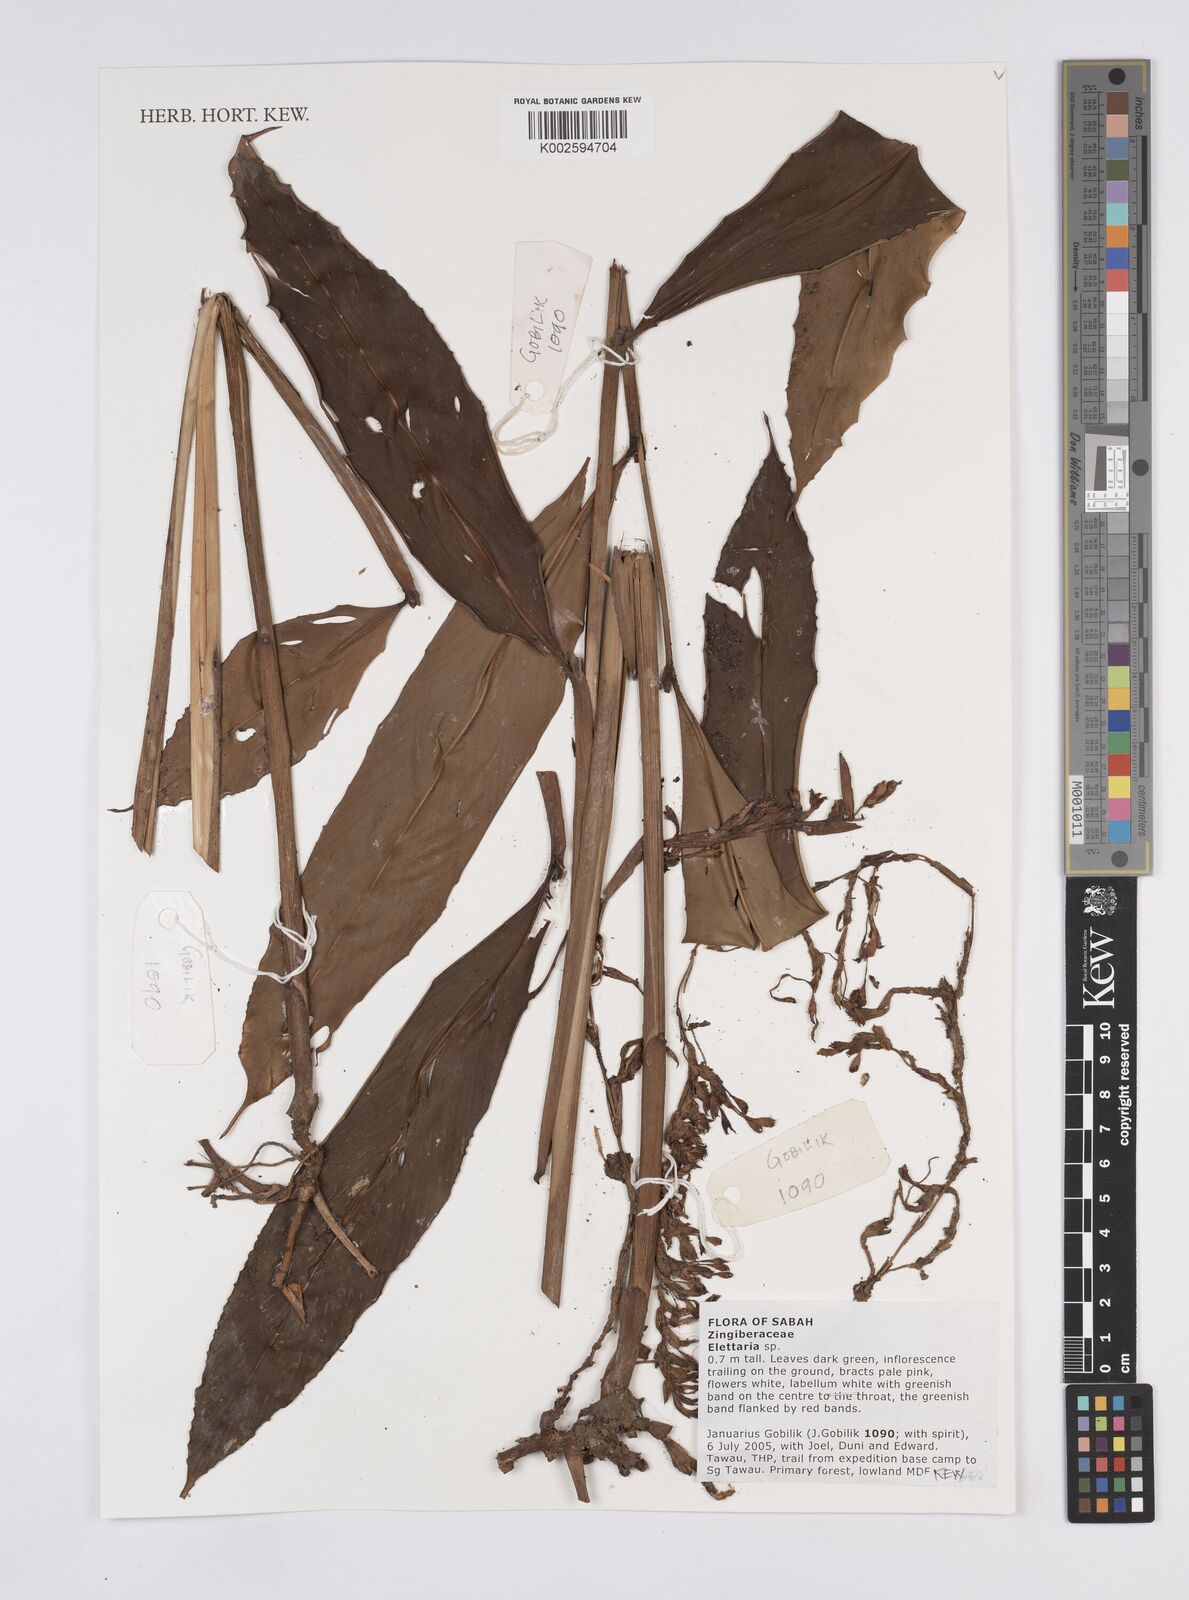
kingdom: Plantae
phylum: Tracheophyta
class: Liliopsida
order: Zingiberales
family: Zingiberaceae
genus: Elettaria
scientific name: Elettaria
